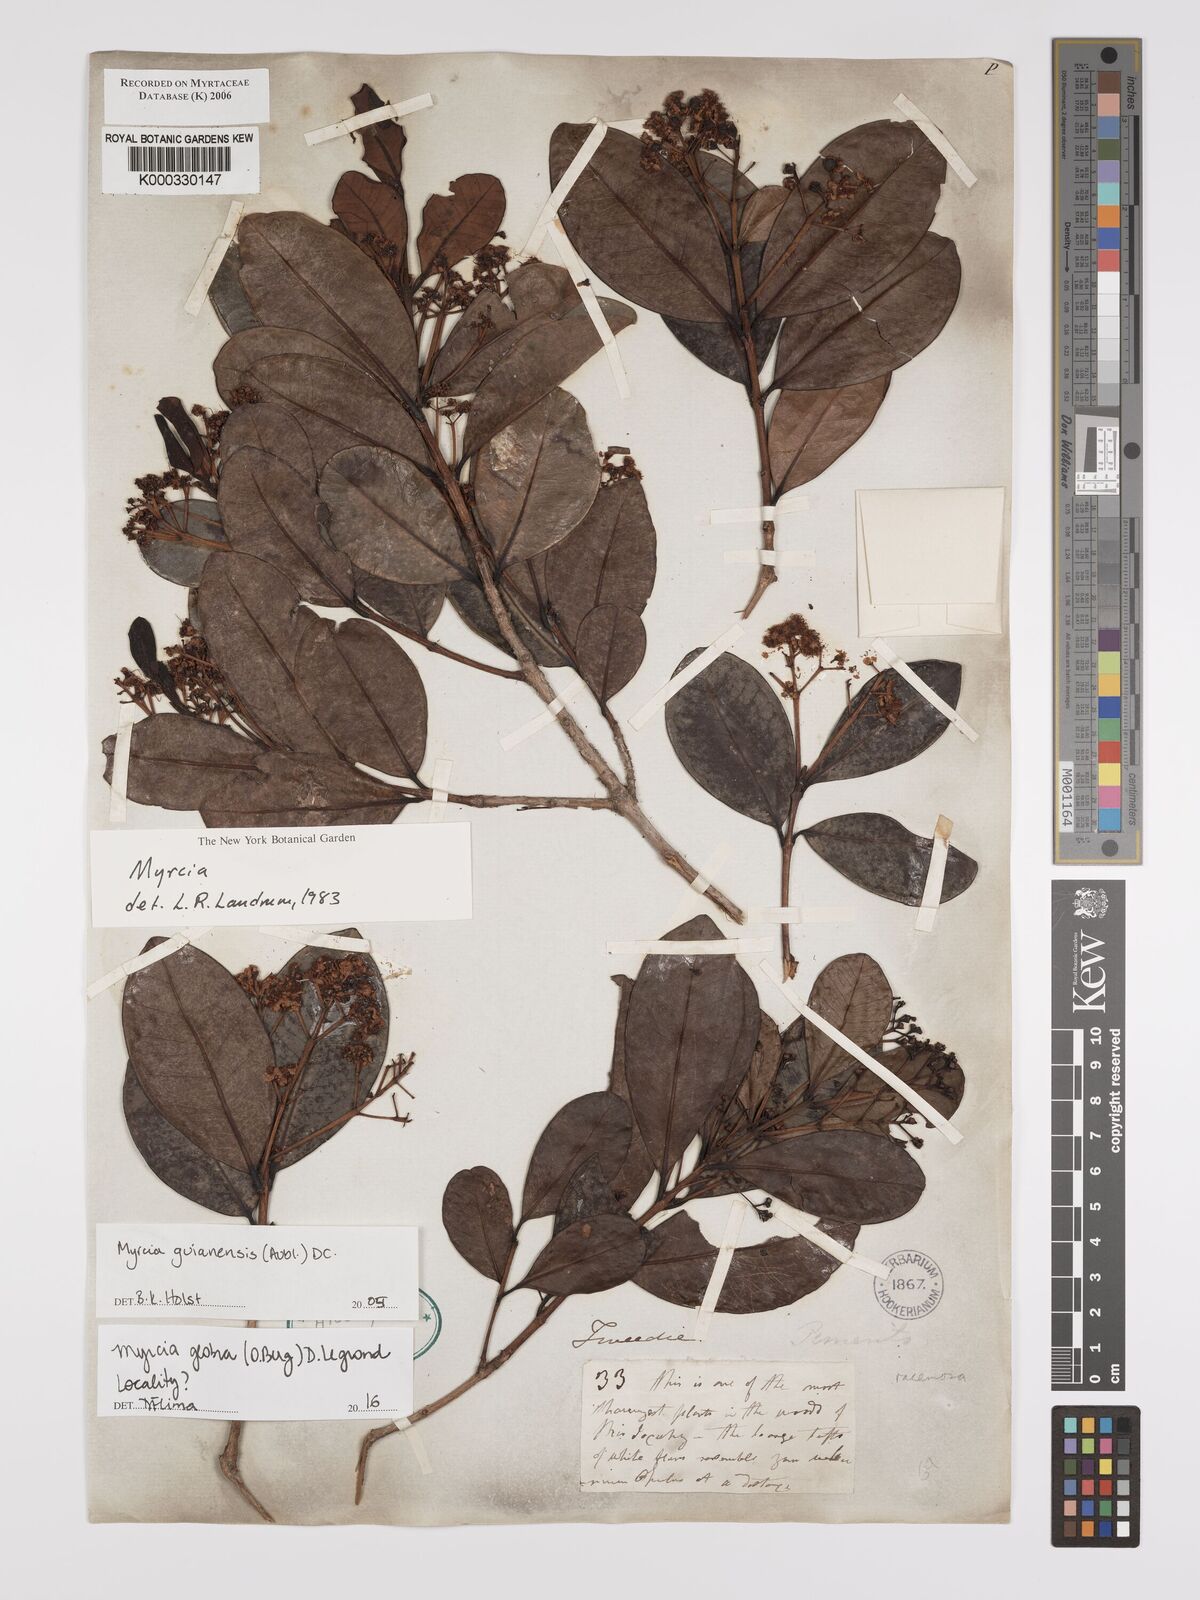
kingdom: Plantae
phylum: Tracheophyta
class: Magnoliopsida
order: Myrtales
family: Myrtaceae
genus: Myrcia
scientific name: Myrcia guianensis
